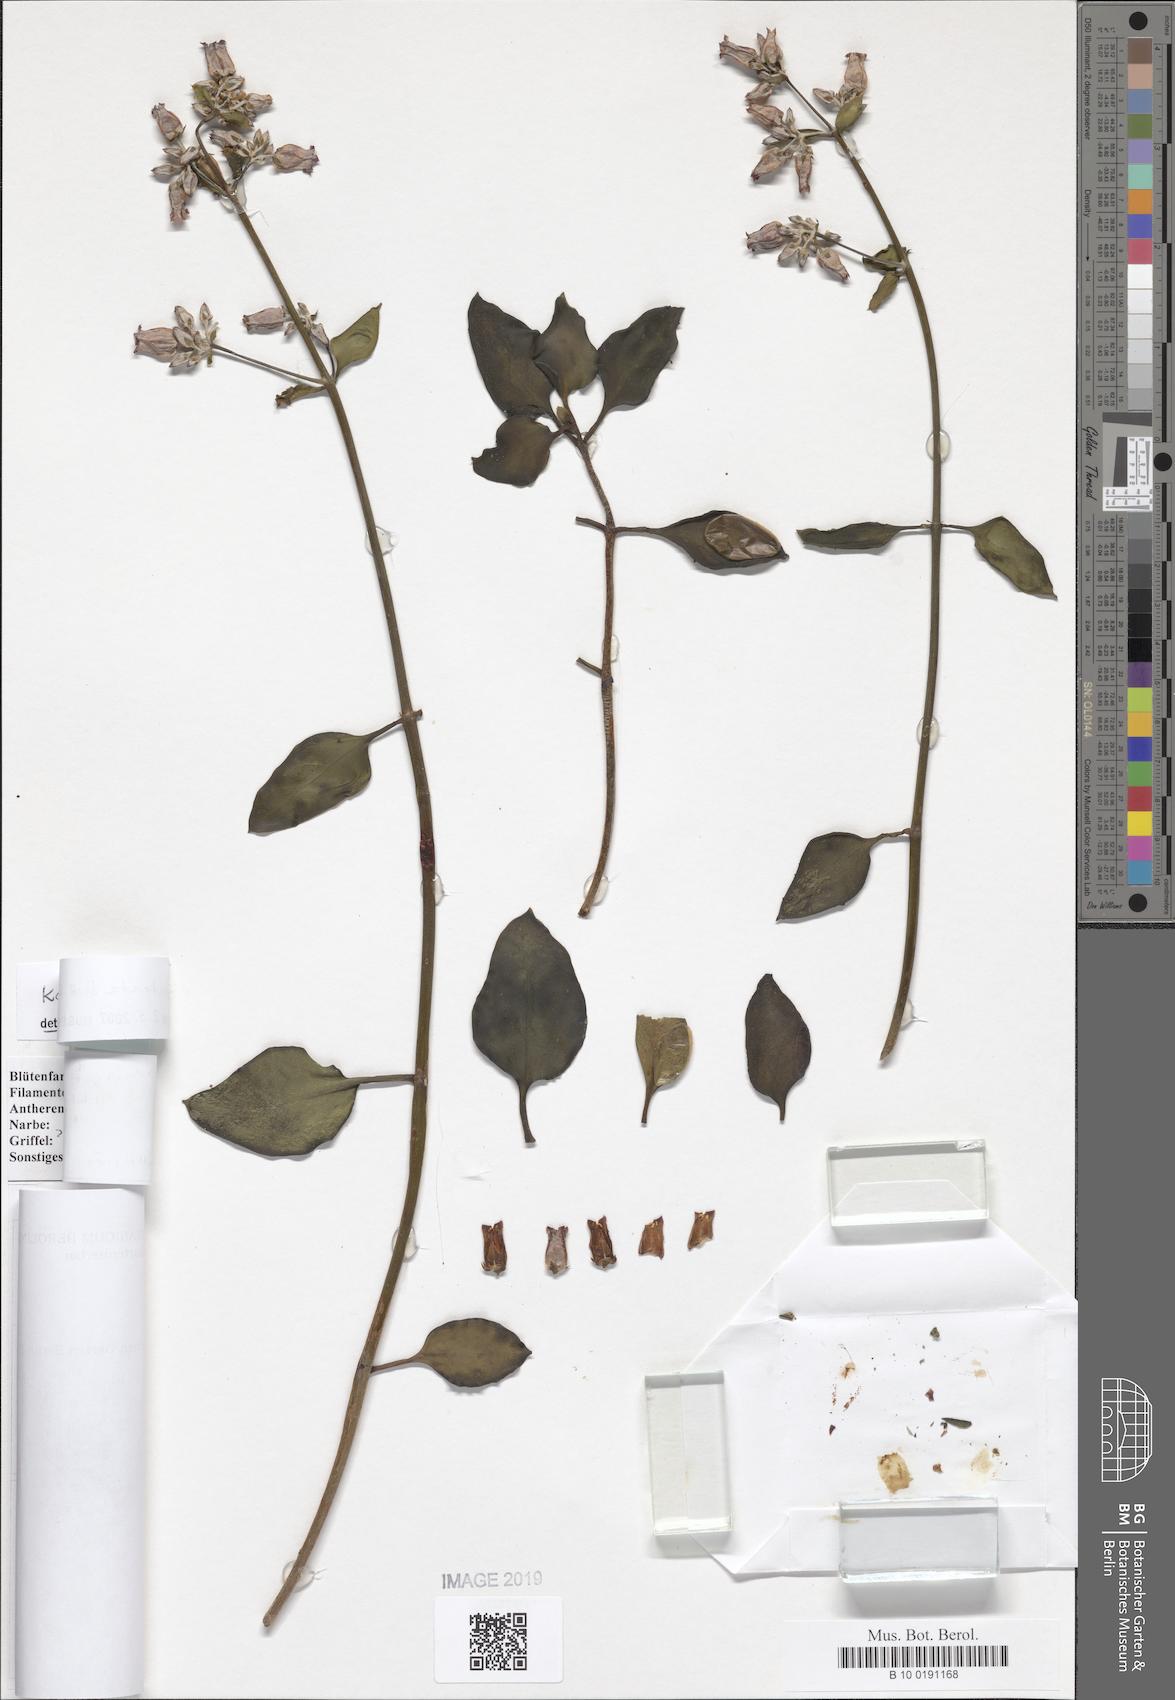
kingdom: Plantae
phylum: Tracheophyta
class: Magnoliopsida
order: Saxifragales
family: Crassulaceae
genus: Kalanchoe
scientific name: Kalanchoe bracteata
